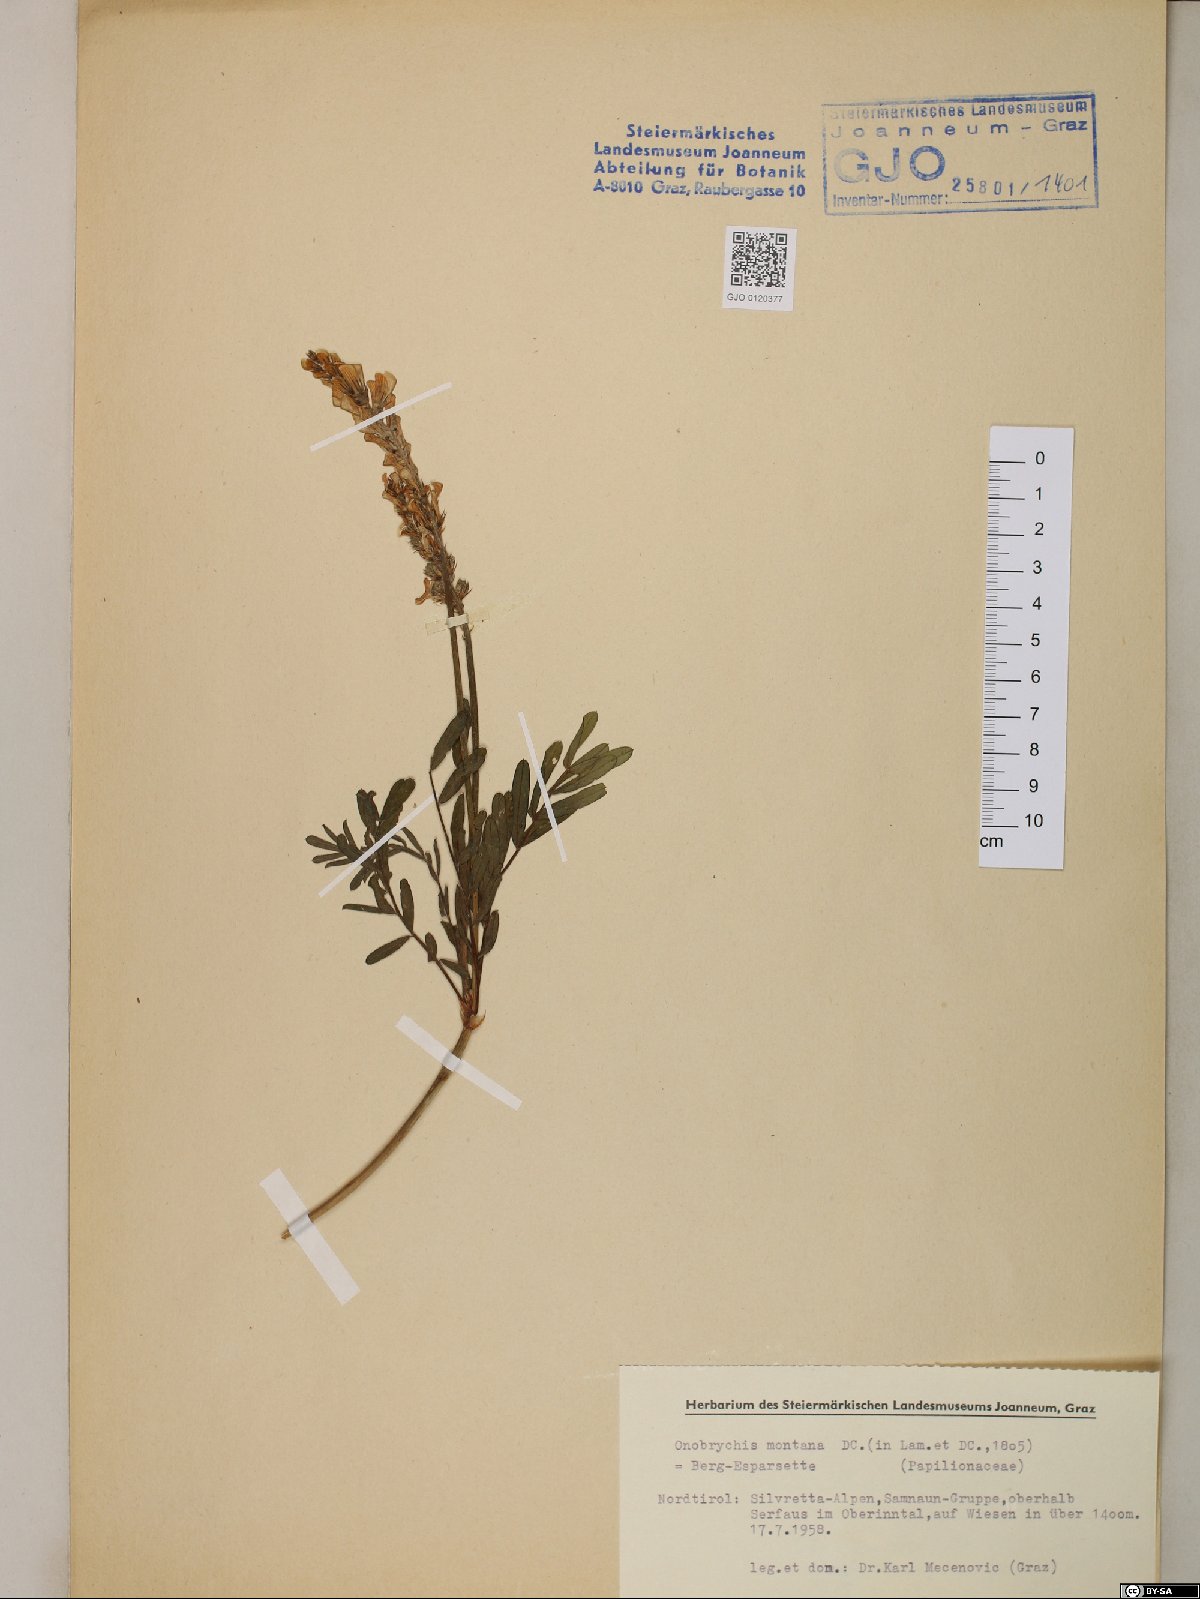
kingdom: Plantae
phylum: Tracheophyta
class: Magnoliopsida
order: Fabales
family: Fabaceae
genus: Onobrychis
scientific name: Onobrychis montana
